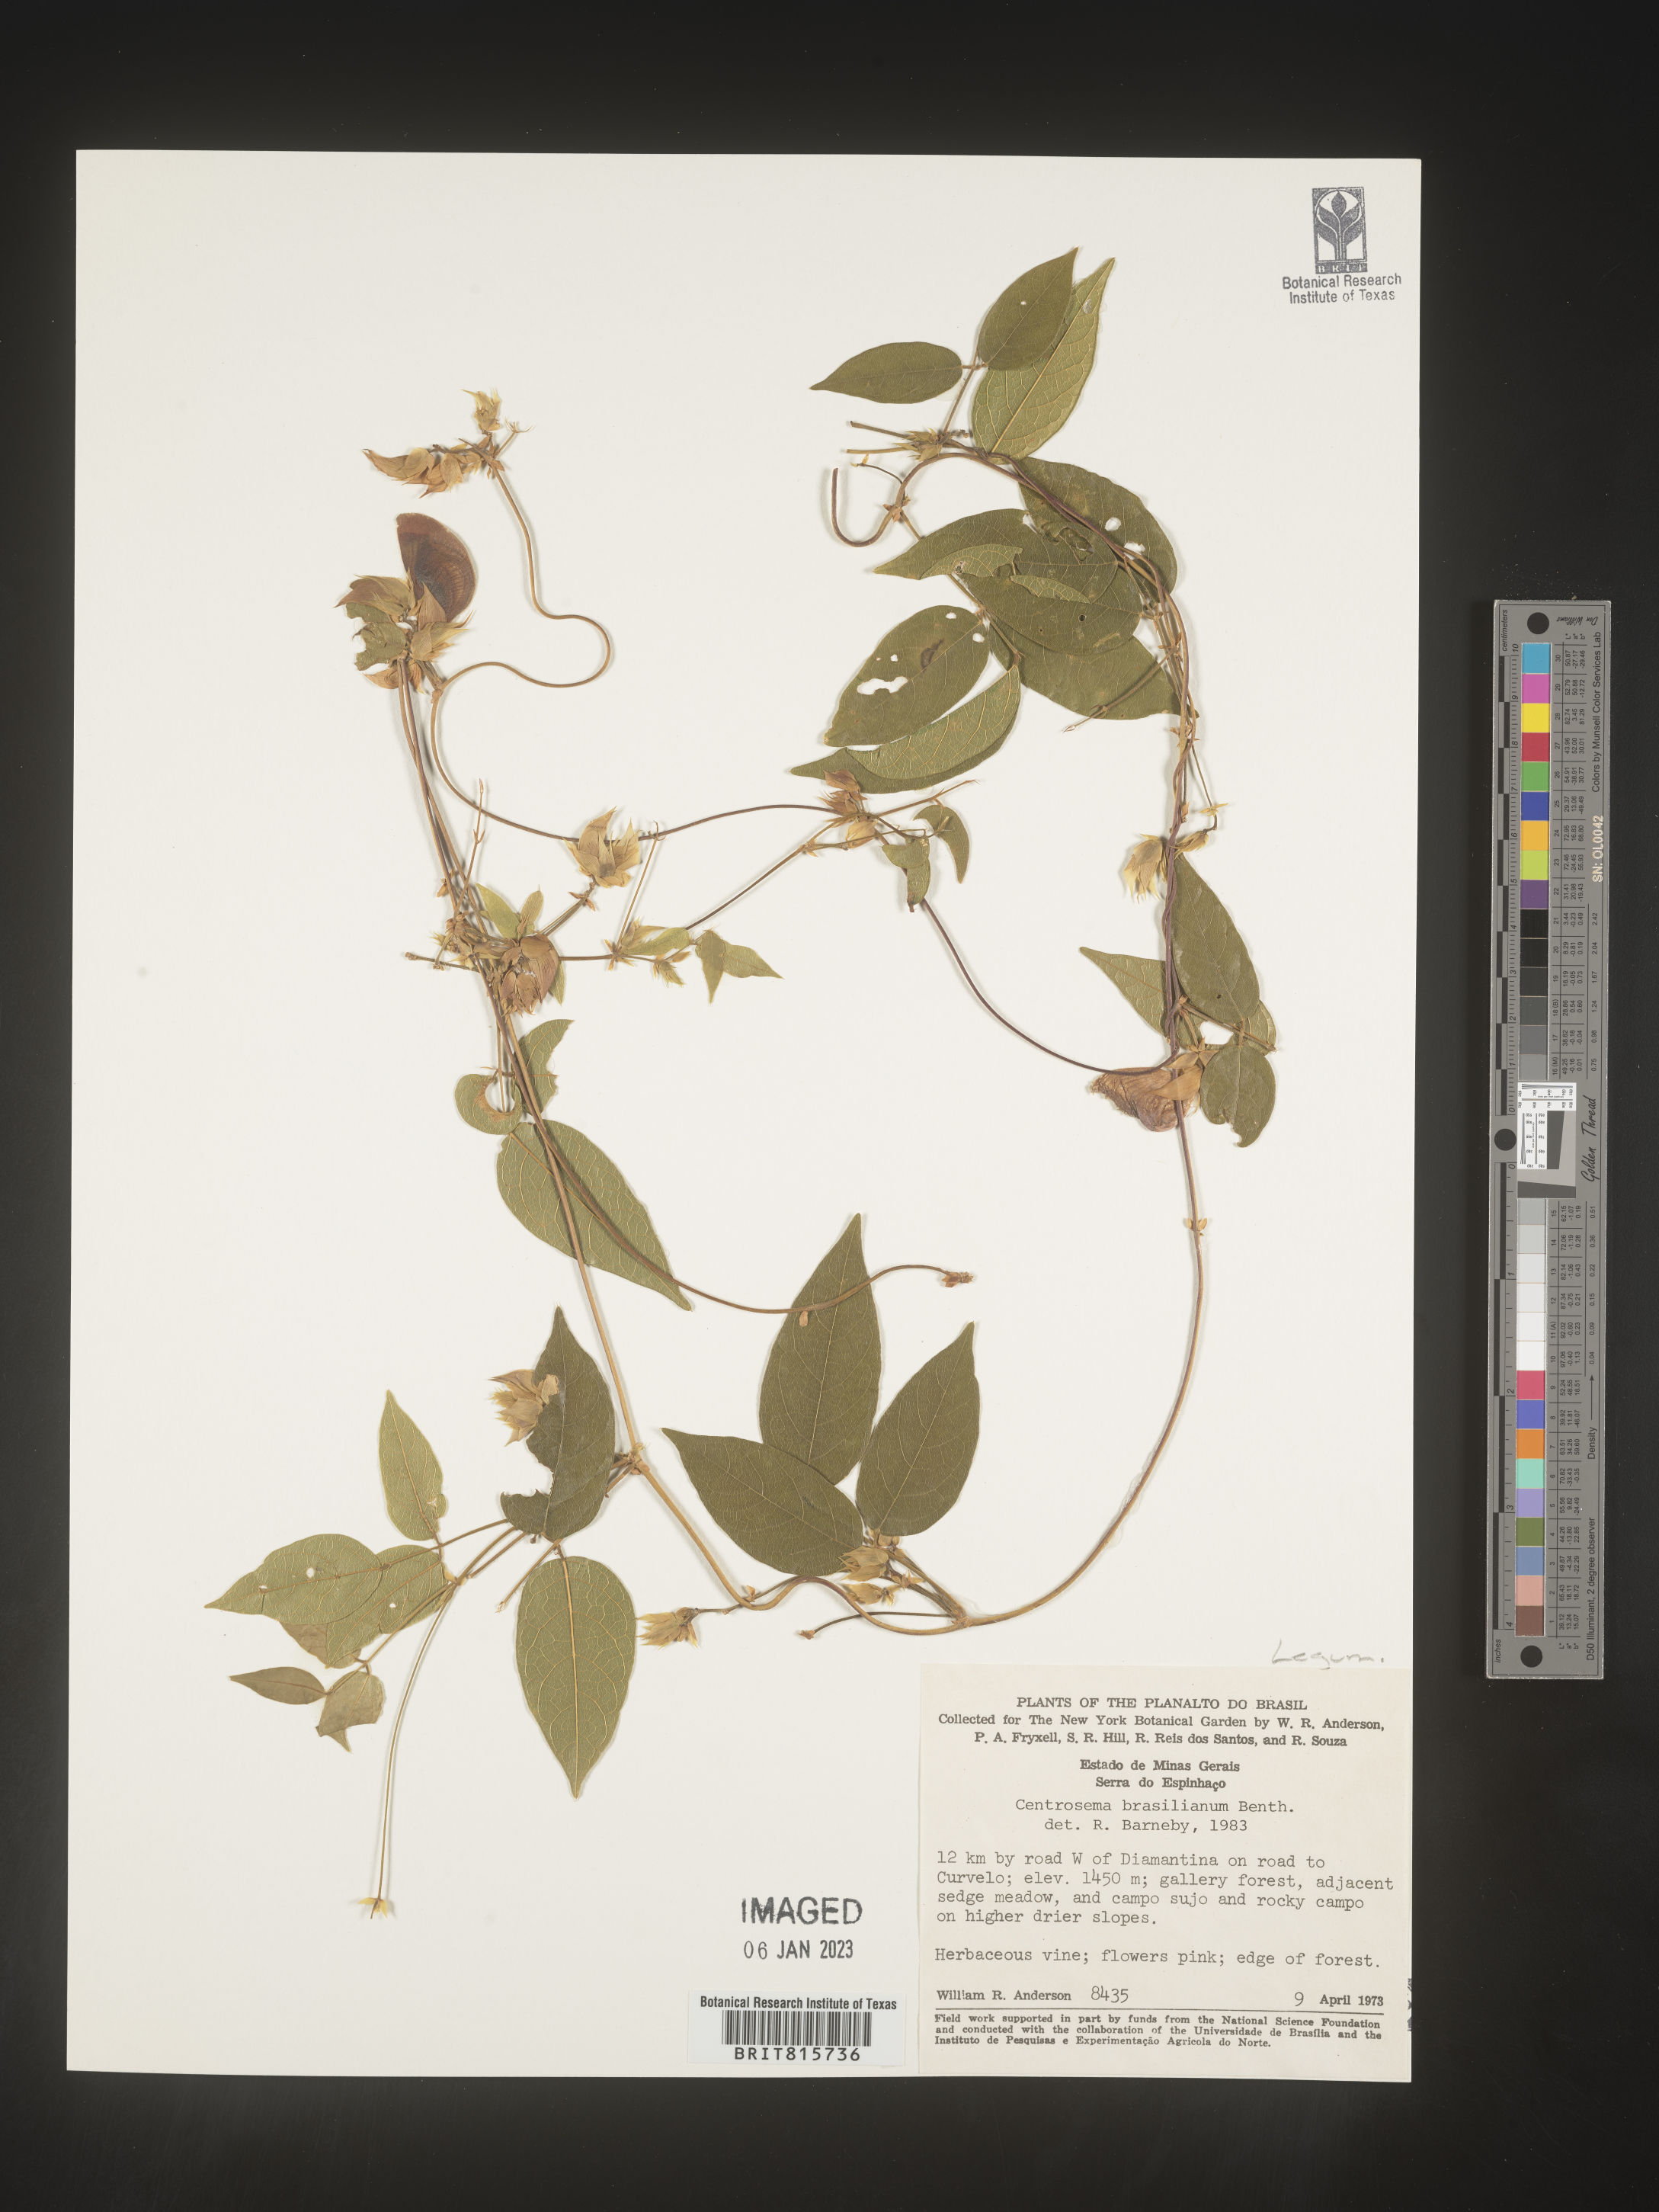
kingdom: Plantae
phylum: Tracheophyta
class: Magnoliopsida
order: Fabales
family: Fabaceae
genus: Centrosema
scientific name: Centrosema
